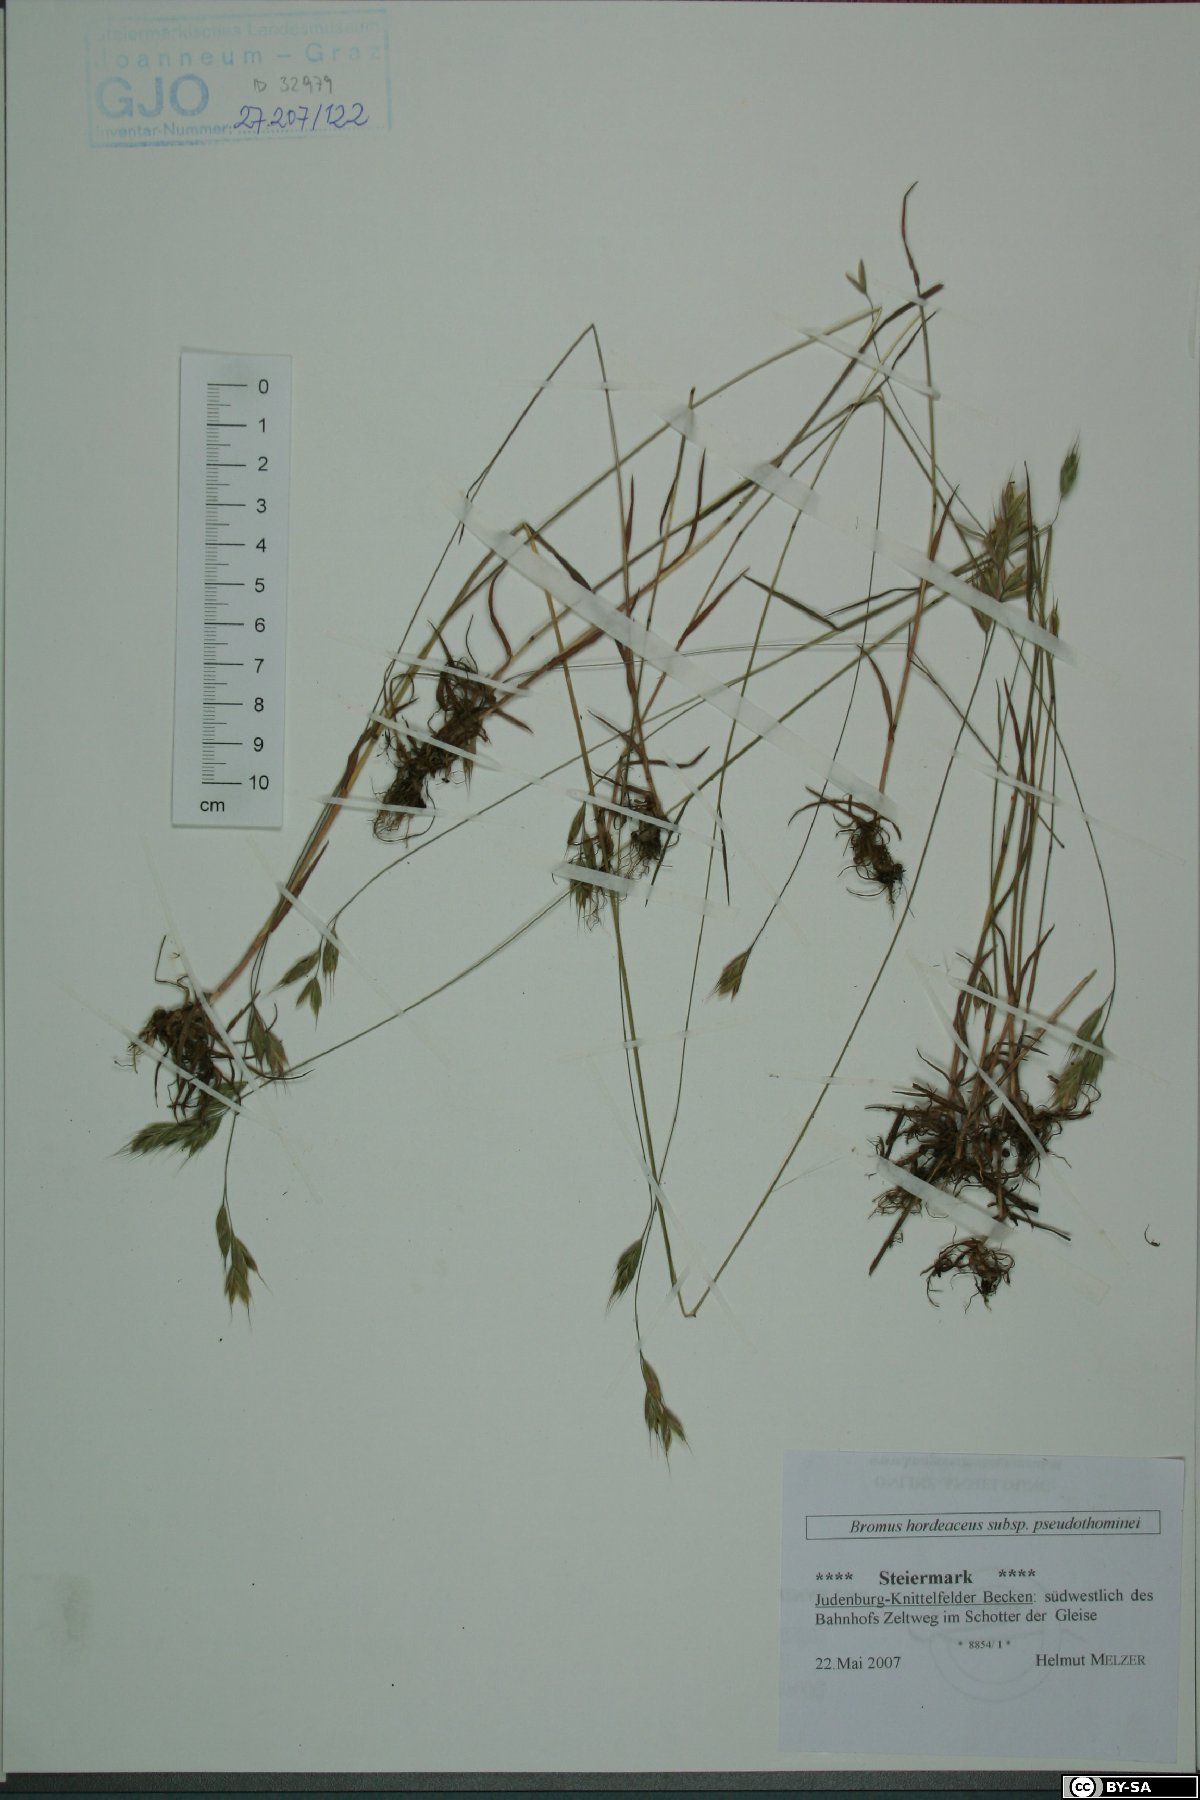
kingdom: Plantae
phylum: Tracheophyta
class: Liliopsida
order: Poales
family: Poaceae
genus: Bromus
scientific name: Bromus ferronii
